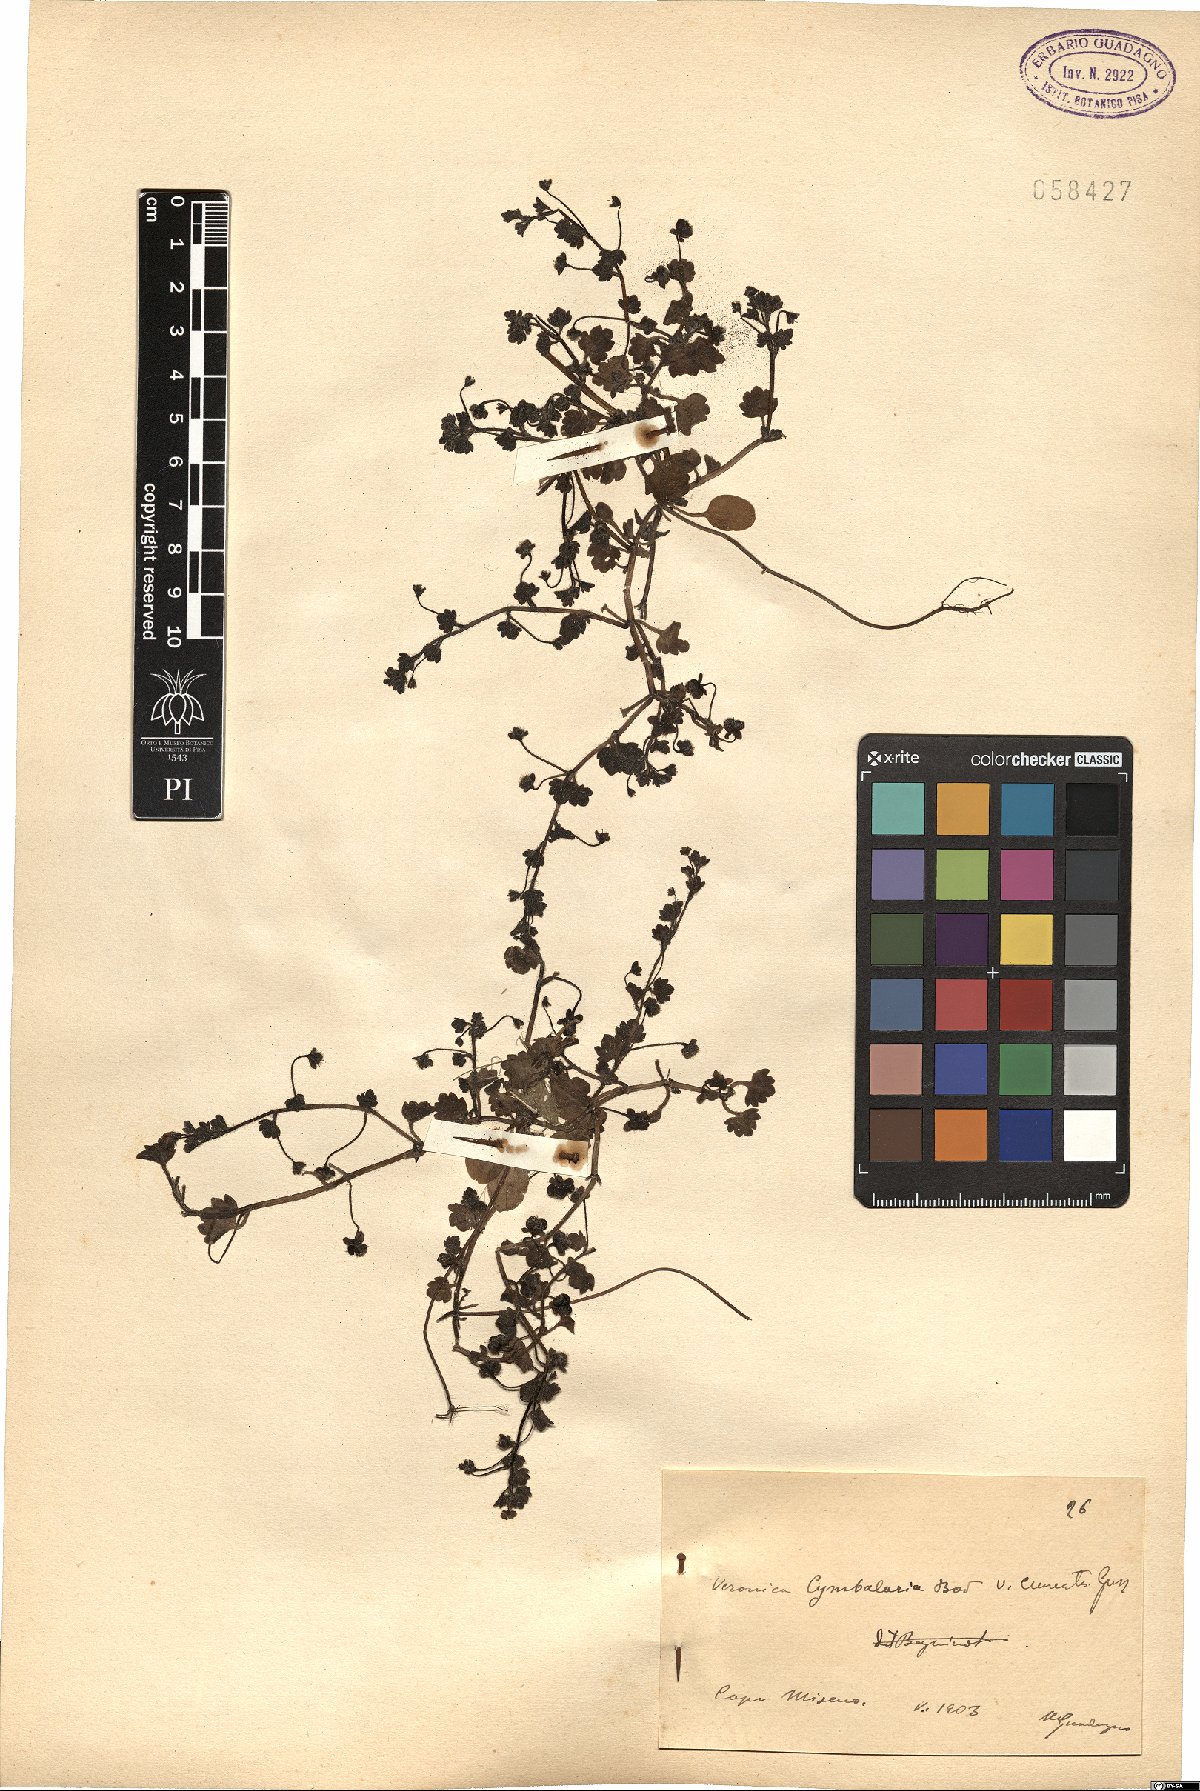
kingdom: Plantae
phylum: Tracheophyta
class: Magnoliopsida
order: Lamiales
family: Plantaginaceae
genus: Veronica
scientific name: Veronica cymbalaria
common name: Pale speedwell
